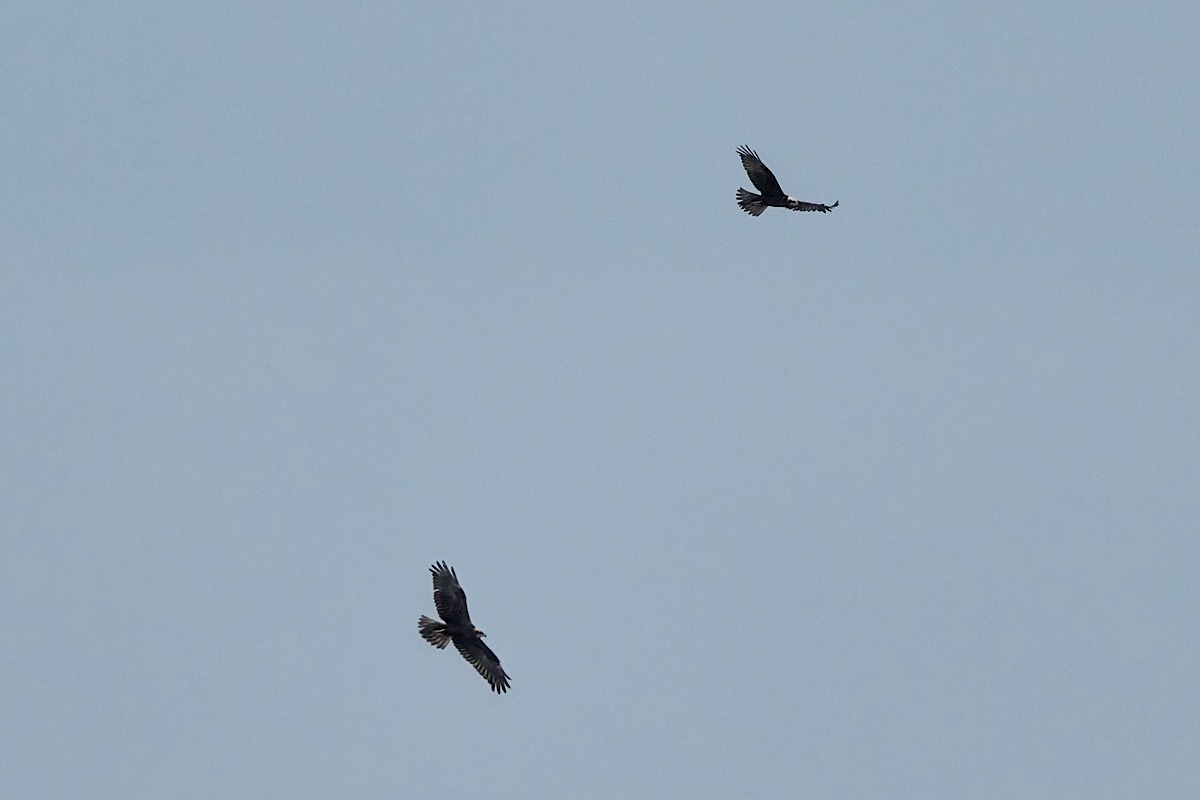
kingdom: Animalia
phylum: Chordata
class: Aves
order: Accipitriformes
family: Accipitridae
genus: Circus
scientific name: Circus aeruginosus
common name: Rørhøg
